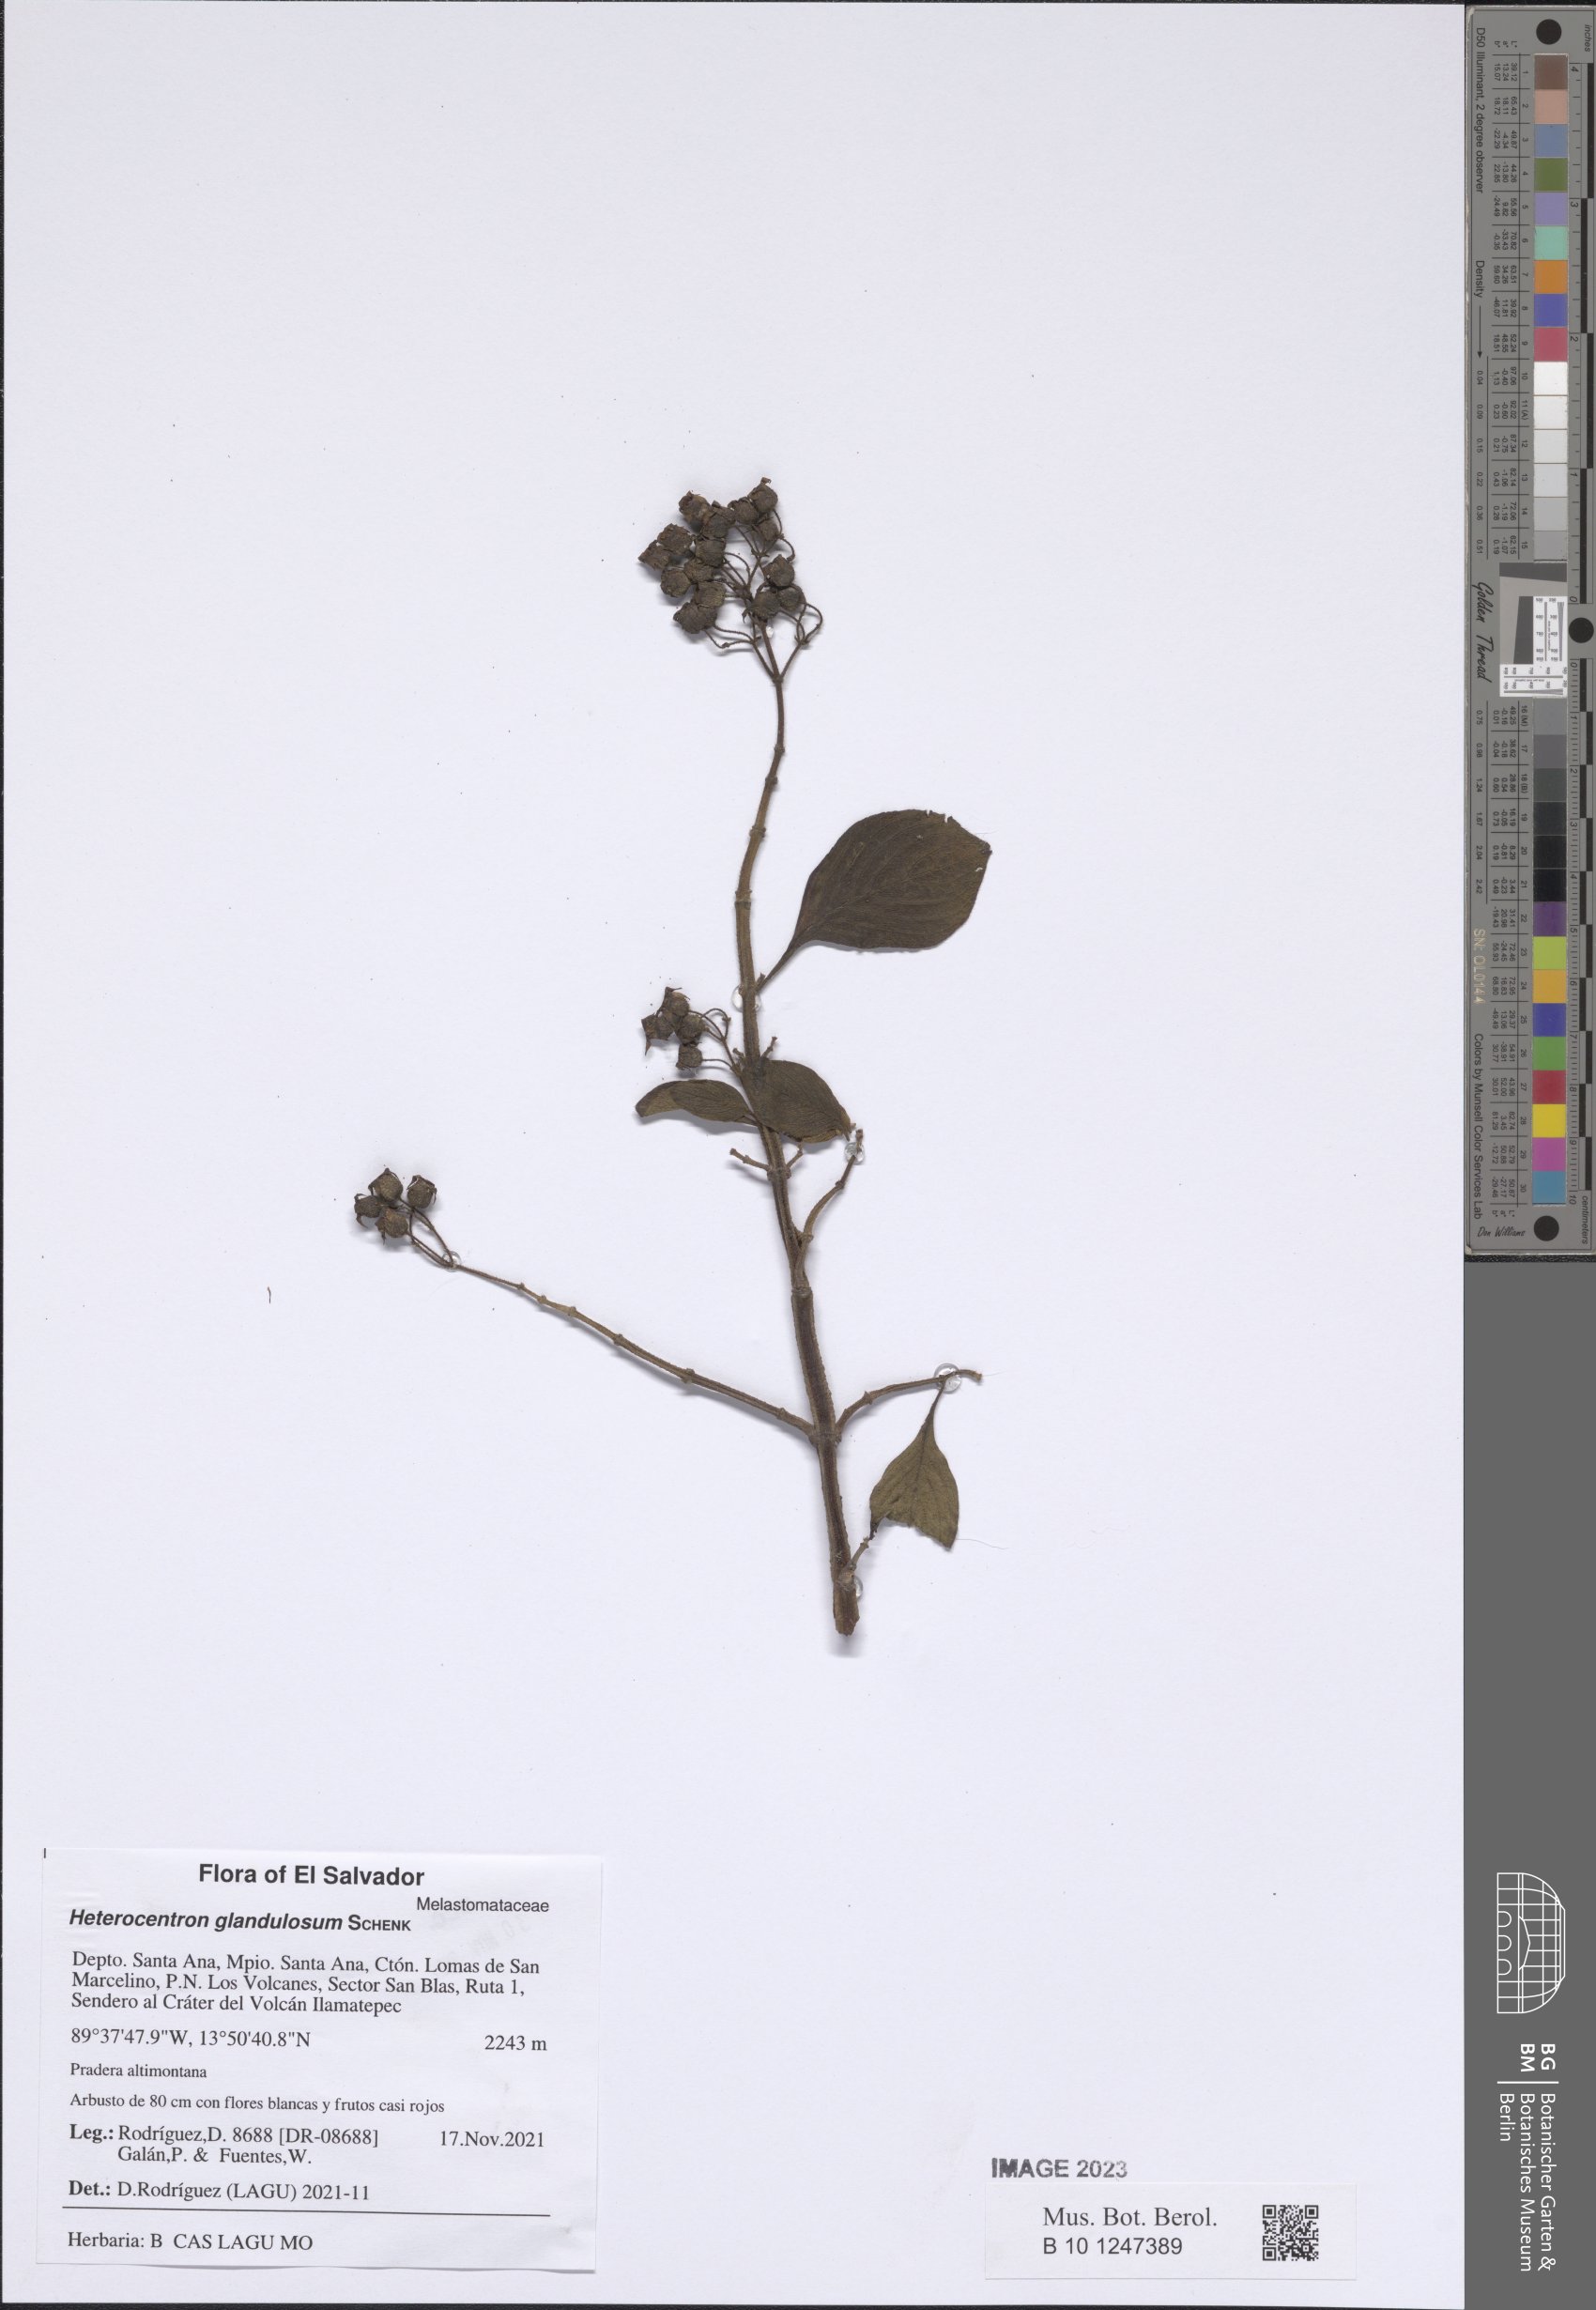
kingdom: Plantae
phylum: Tracheophyta
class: Magnoliopsida
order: Myrtales
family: Melastomataceae
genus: Heterocentron
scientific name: Heterocentron glandulosum
